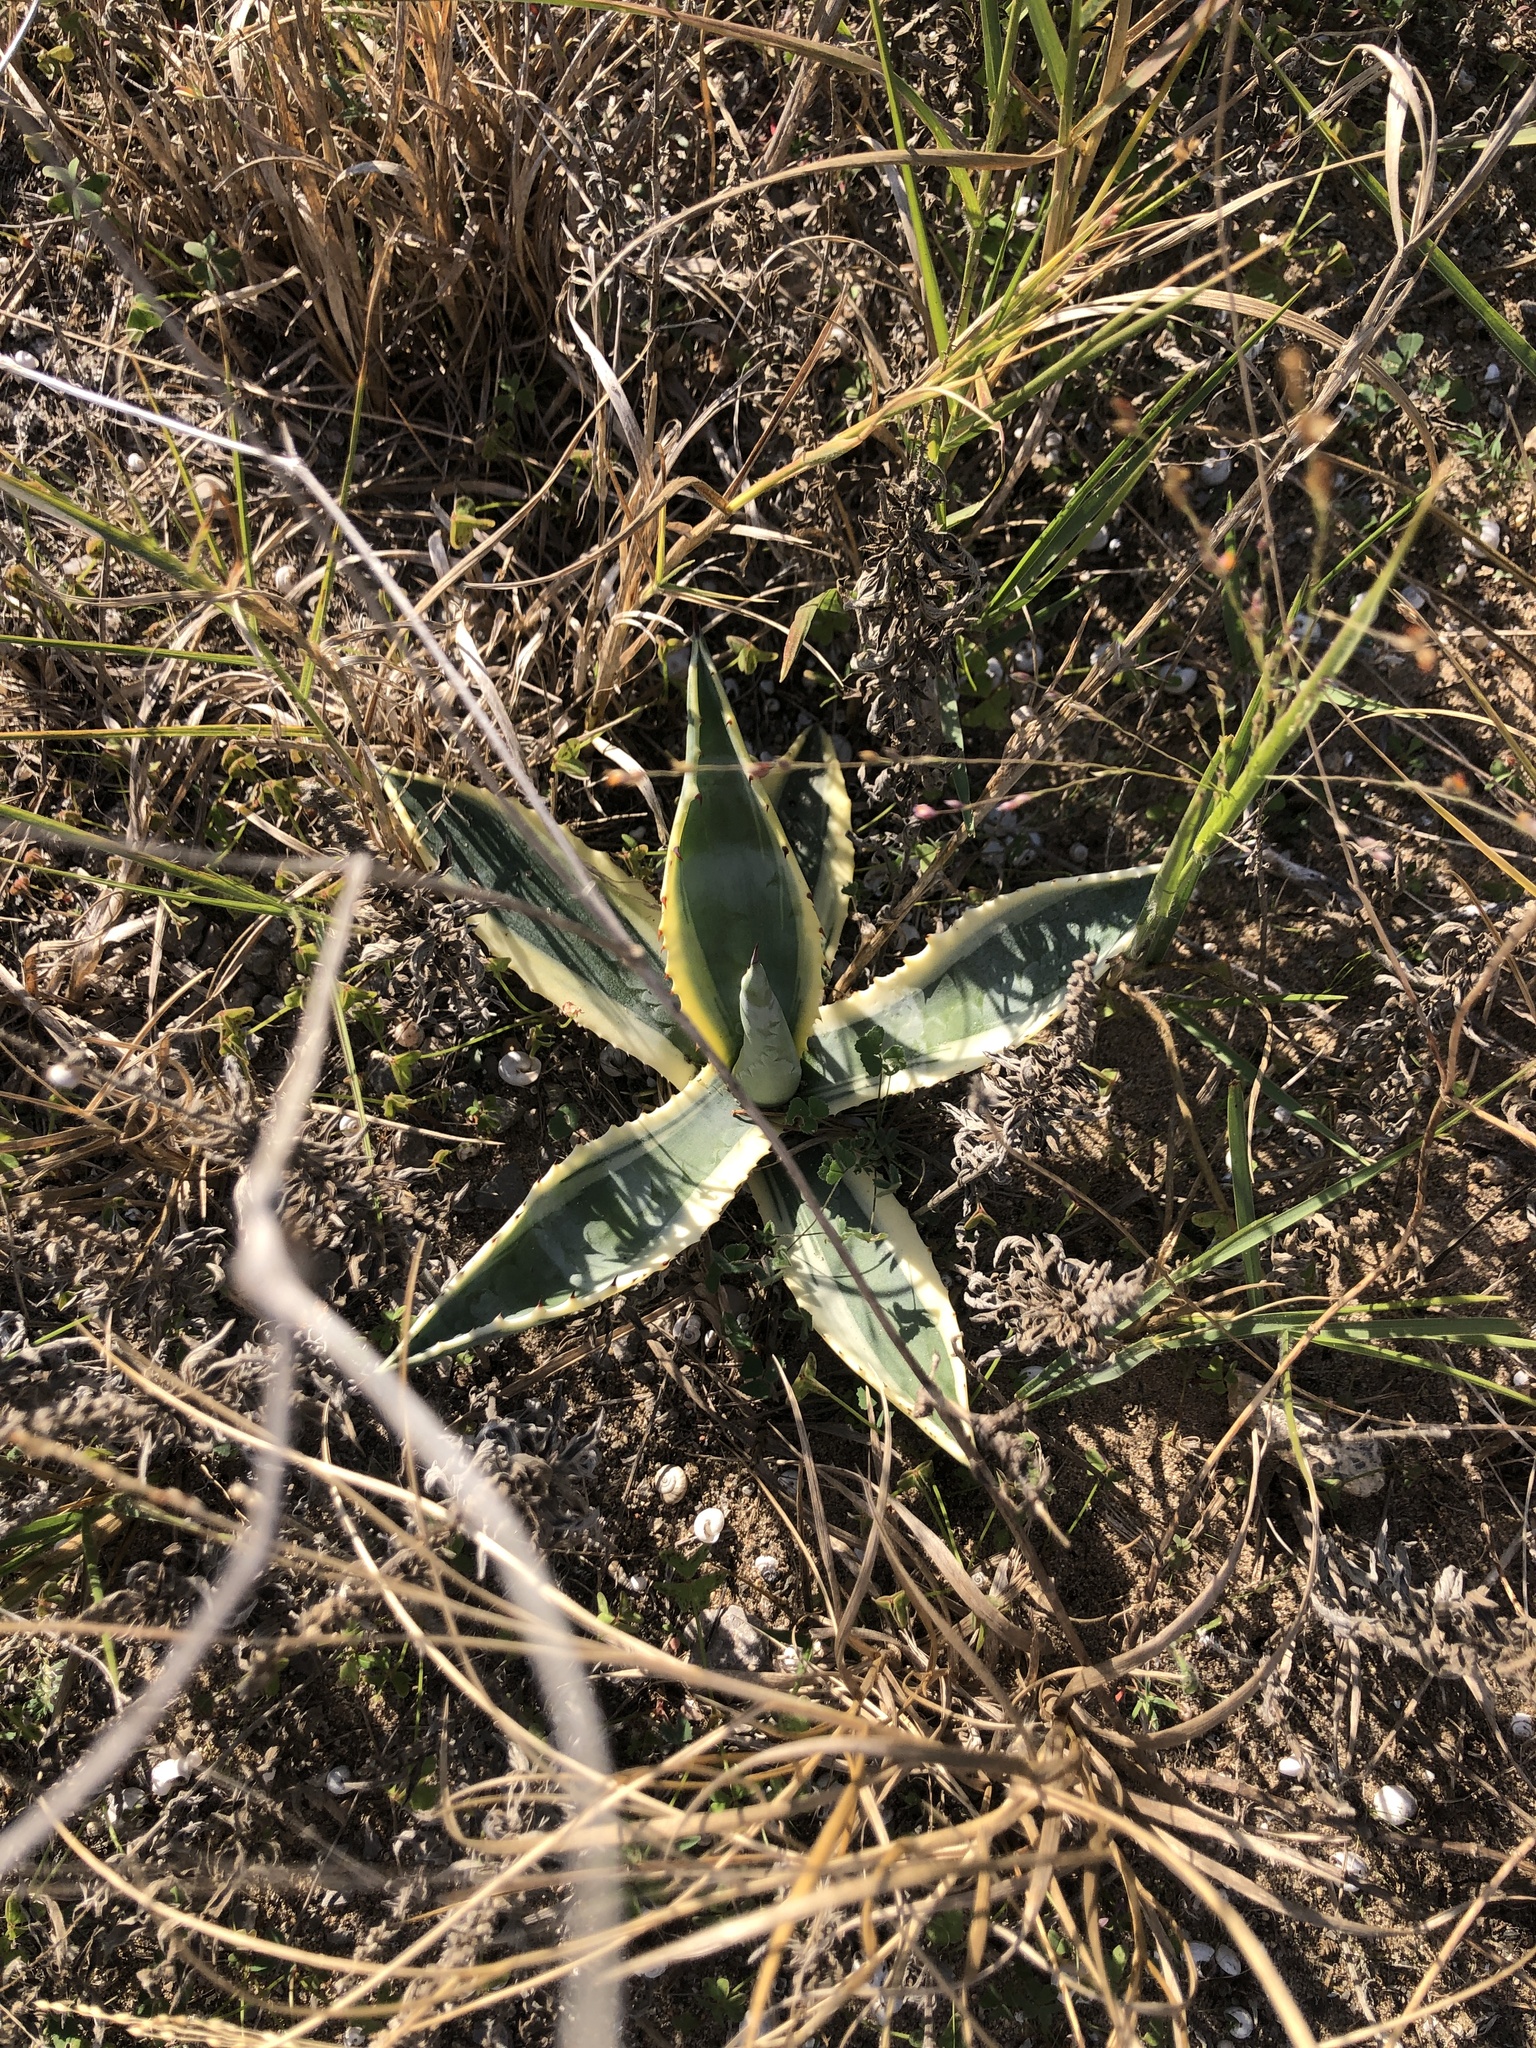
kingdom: Plantae
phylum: Tracheophyta
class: Liliopsida
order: Asparagales
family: Asparagaceae
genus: Agave
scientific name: Agave americana
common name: Centuryplant
